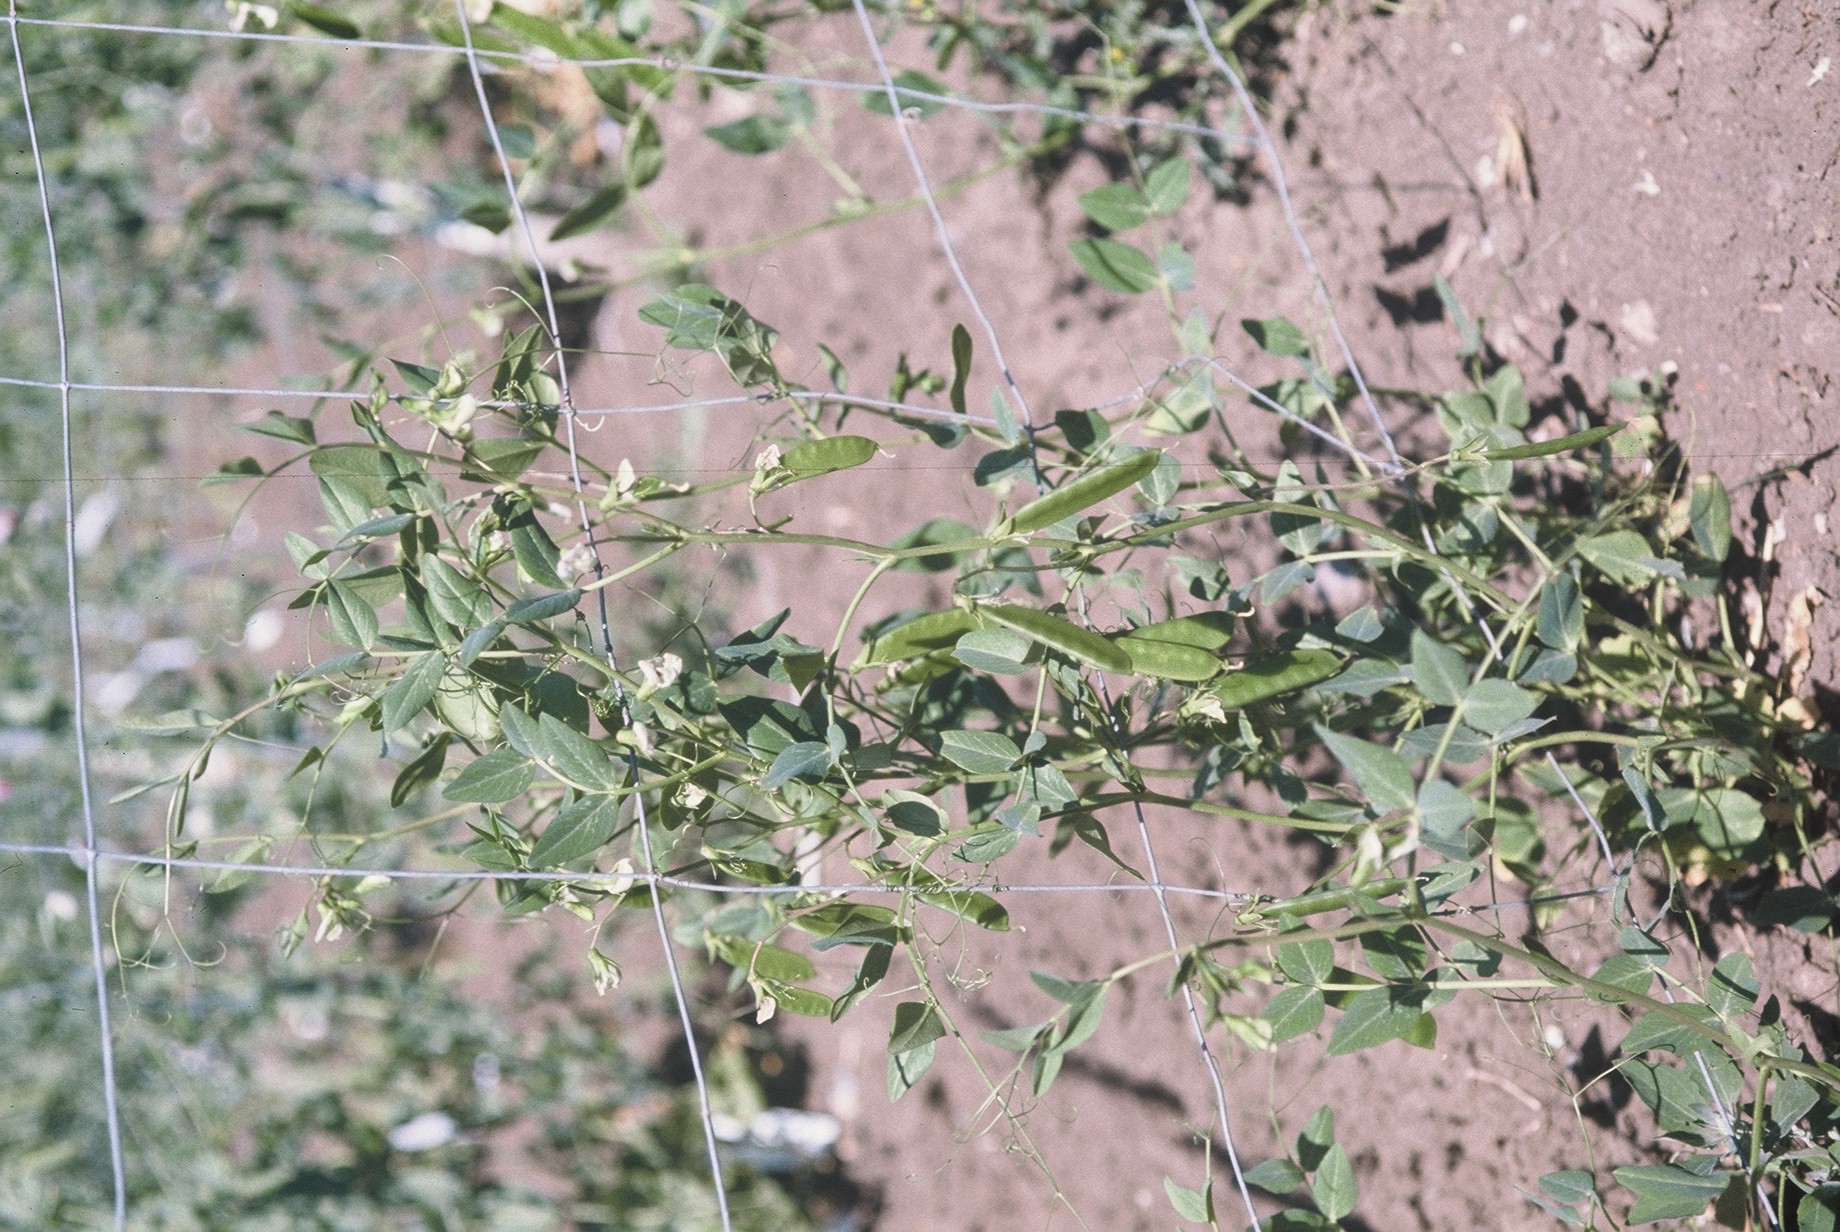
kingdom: Plantae
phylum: Tracheophyta
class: Magnoliopsida
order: Fabales
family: Fabaceae
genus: Lathyrus
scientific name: Lathyrus oleraceus
